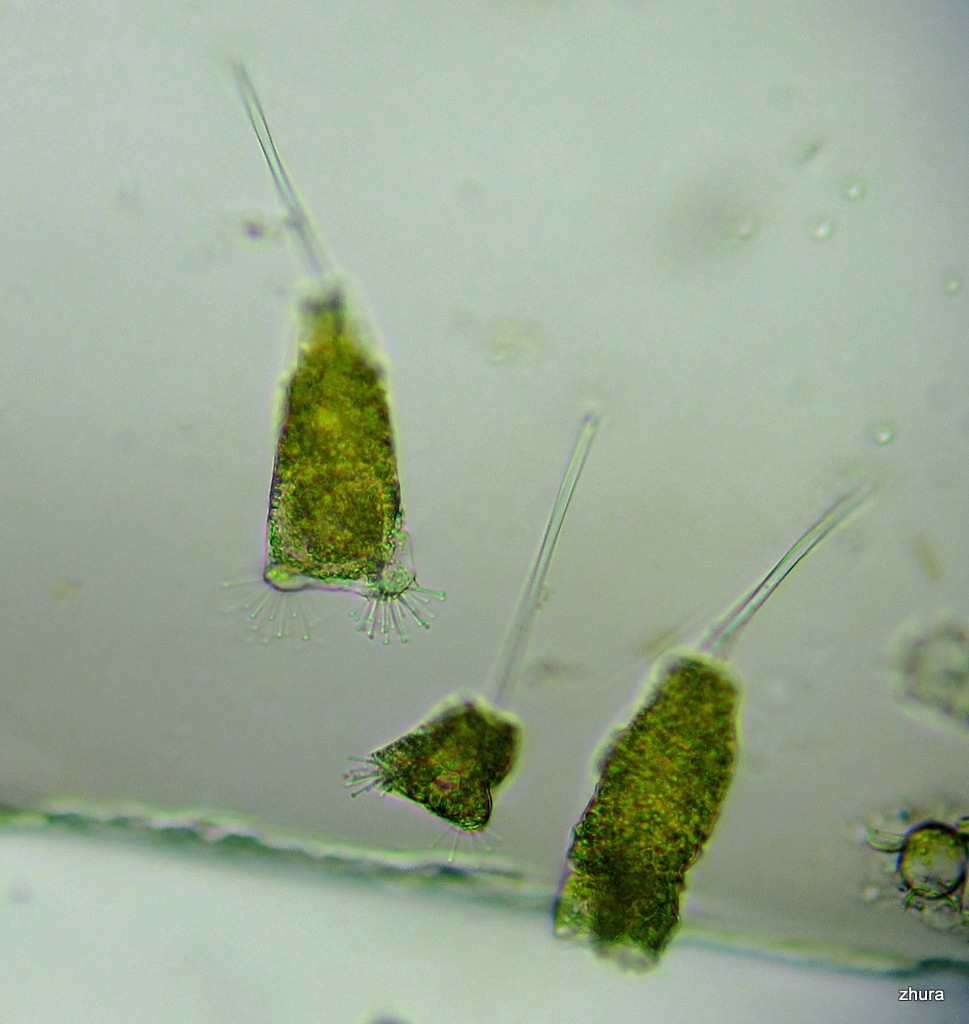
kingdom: Chromista
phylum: Ciliophora
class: Kinetofragminophora
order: Suctorida
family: Acinetidae
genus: Acineta
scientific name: Acineta tuberosa
